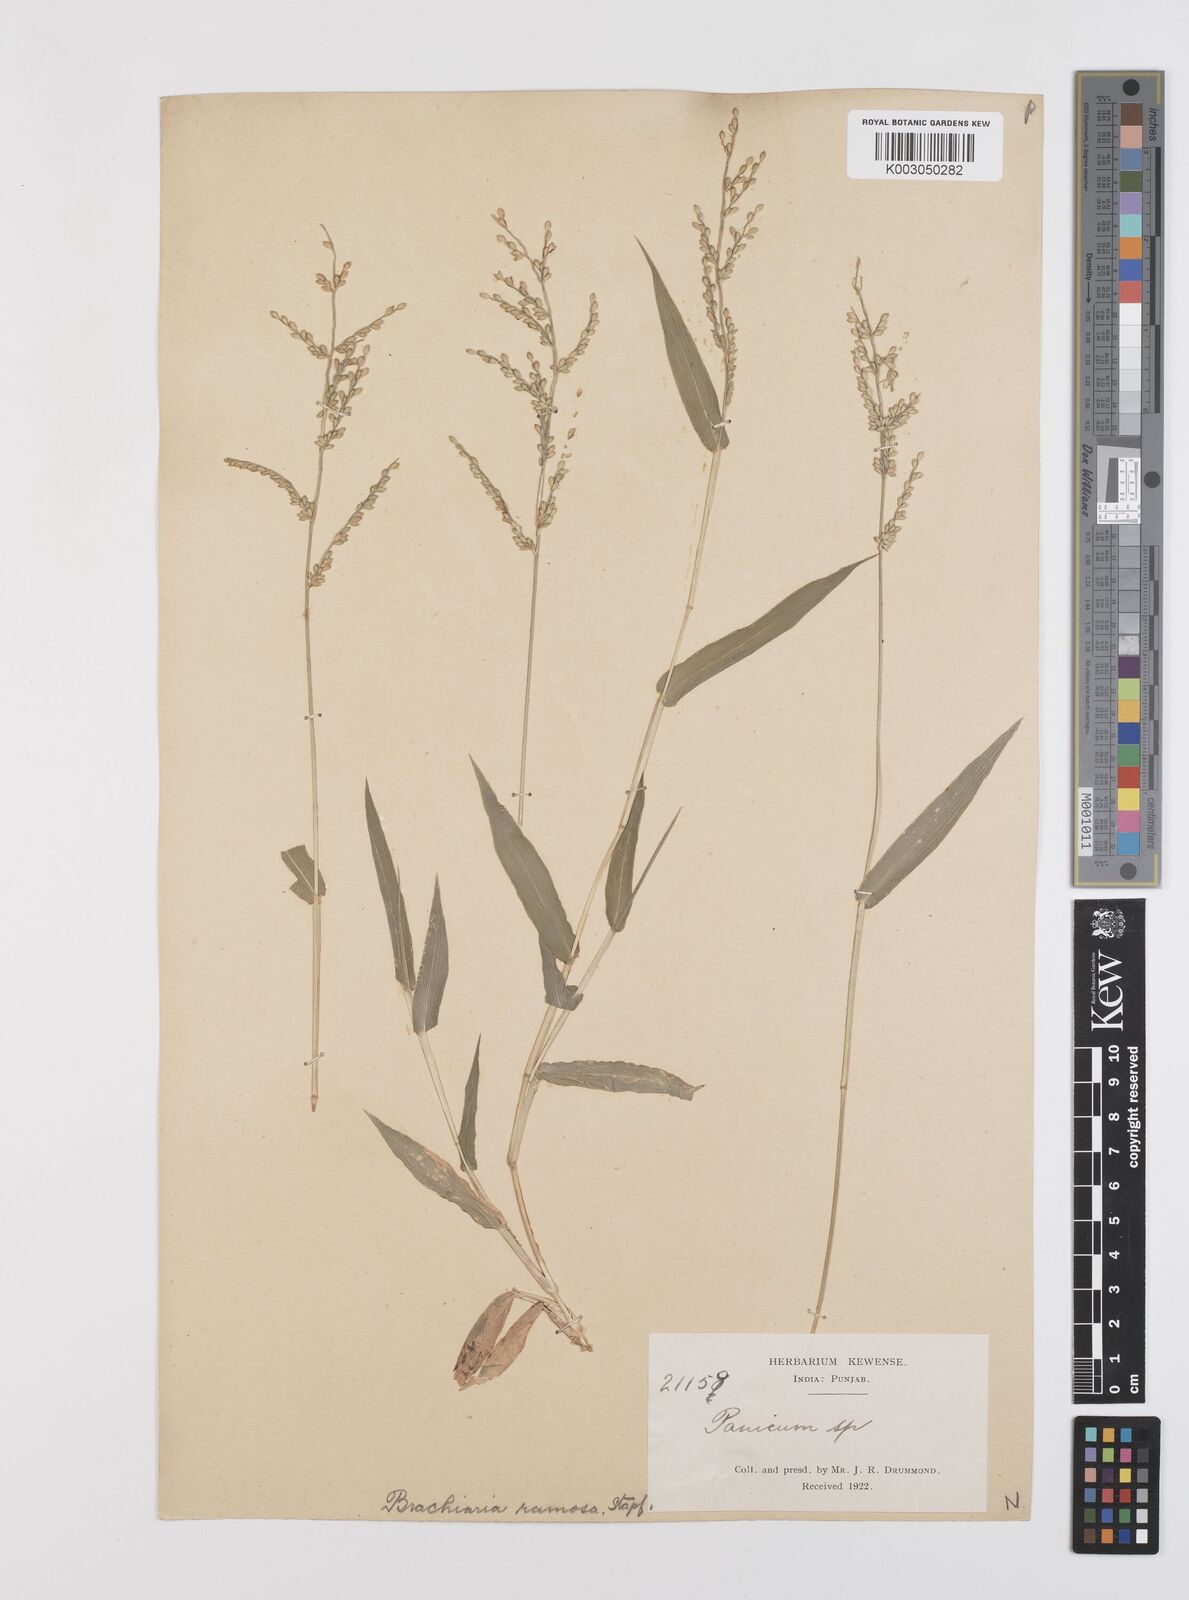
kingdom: Plantae
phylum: Tracheophyta
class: Liliopsida
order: Poales
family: Poaceae
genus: Urochloa
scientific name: Urochloa ramosa
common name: Browntop millet
